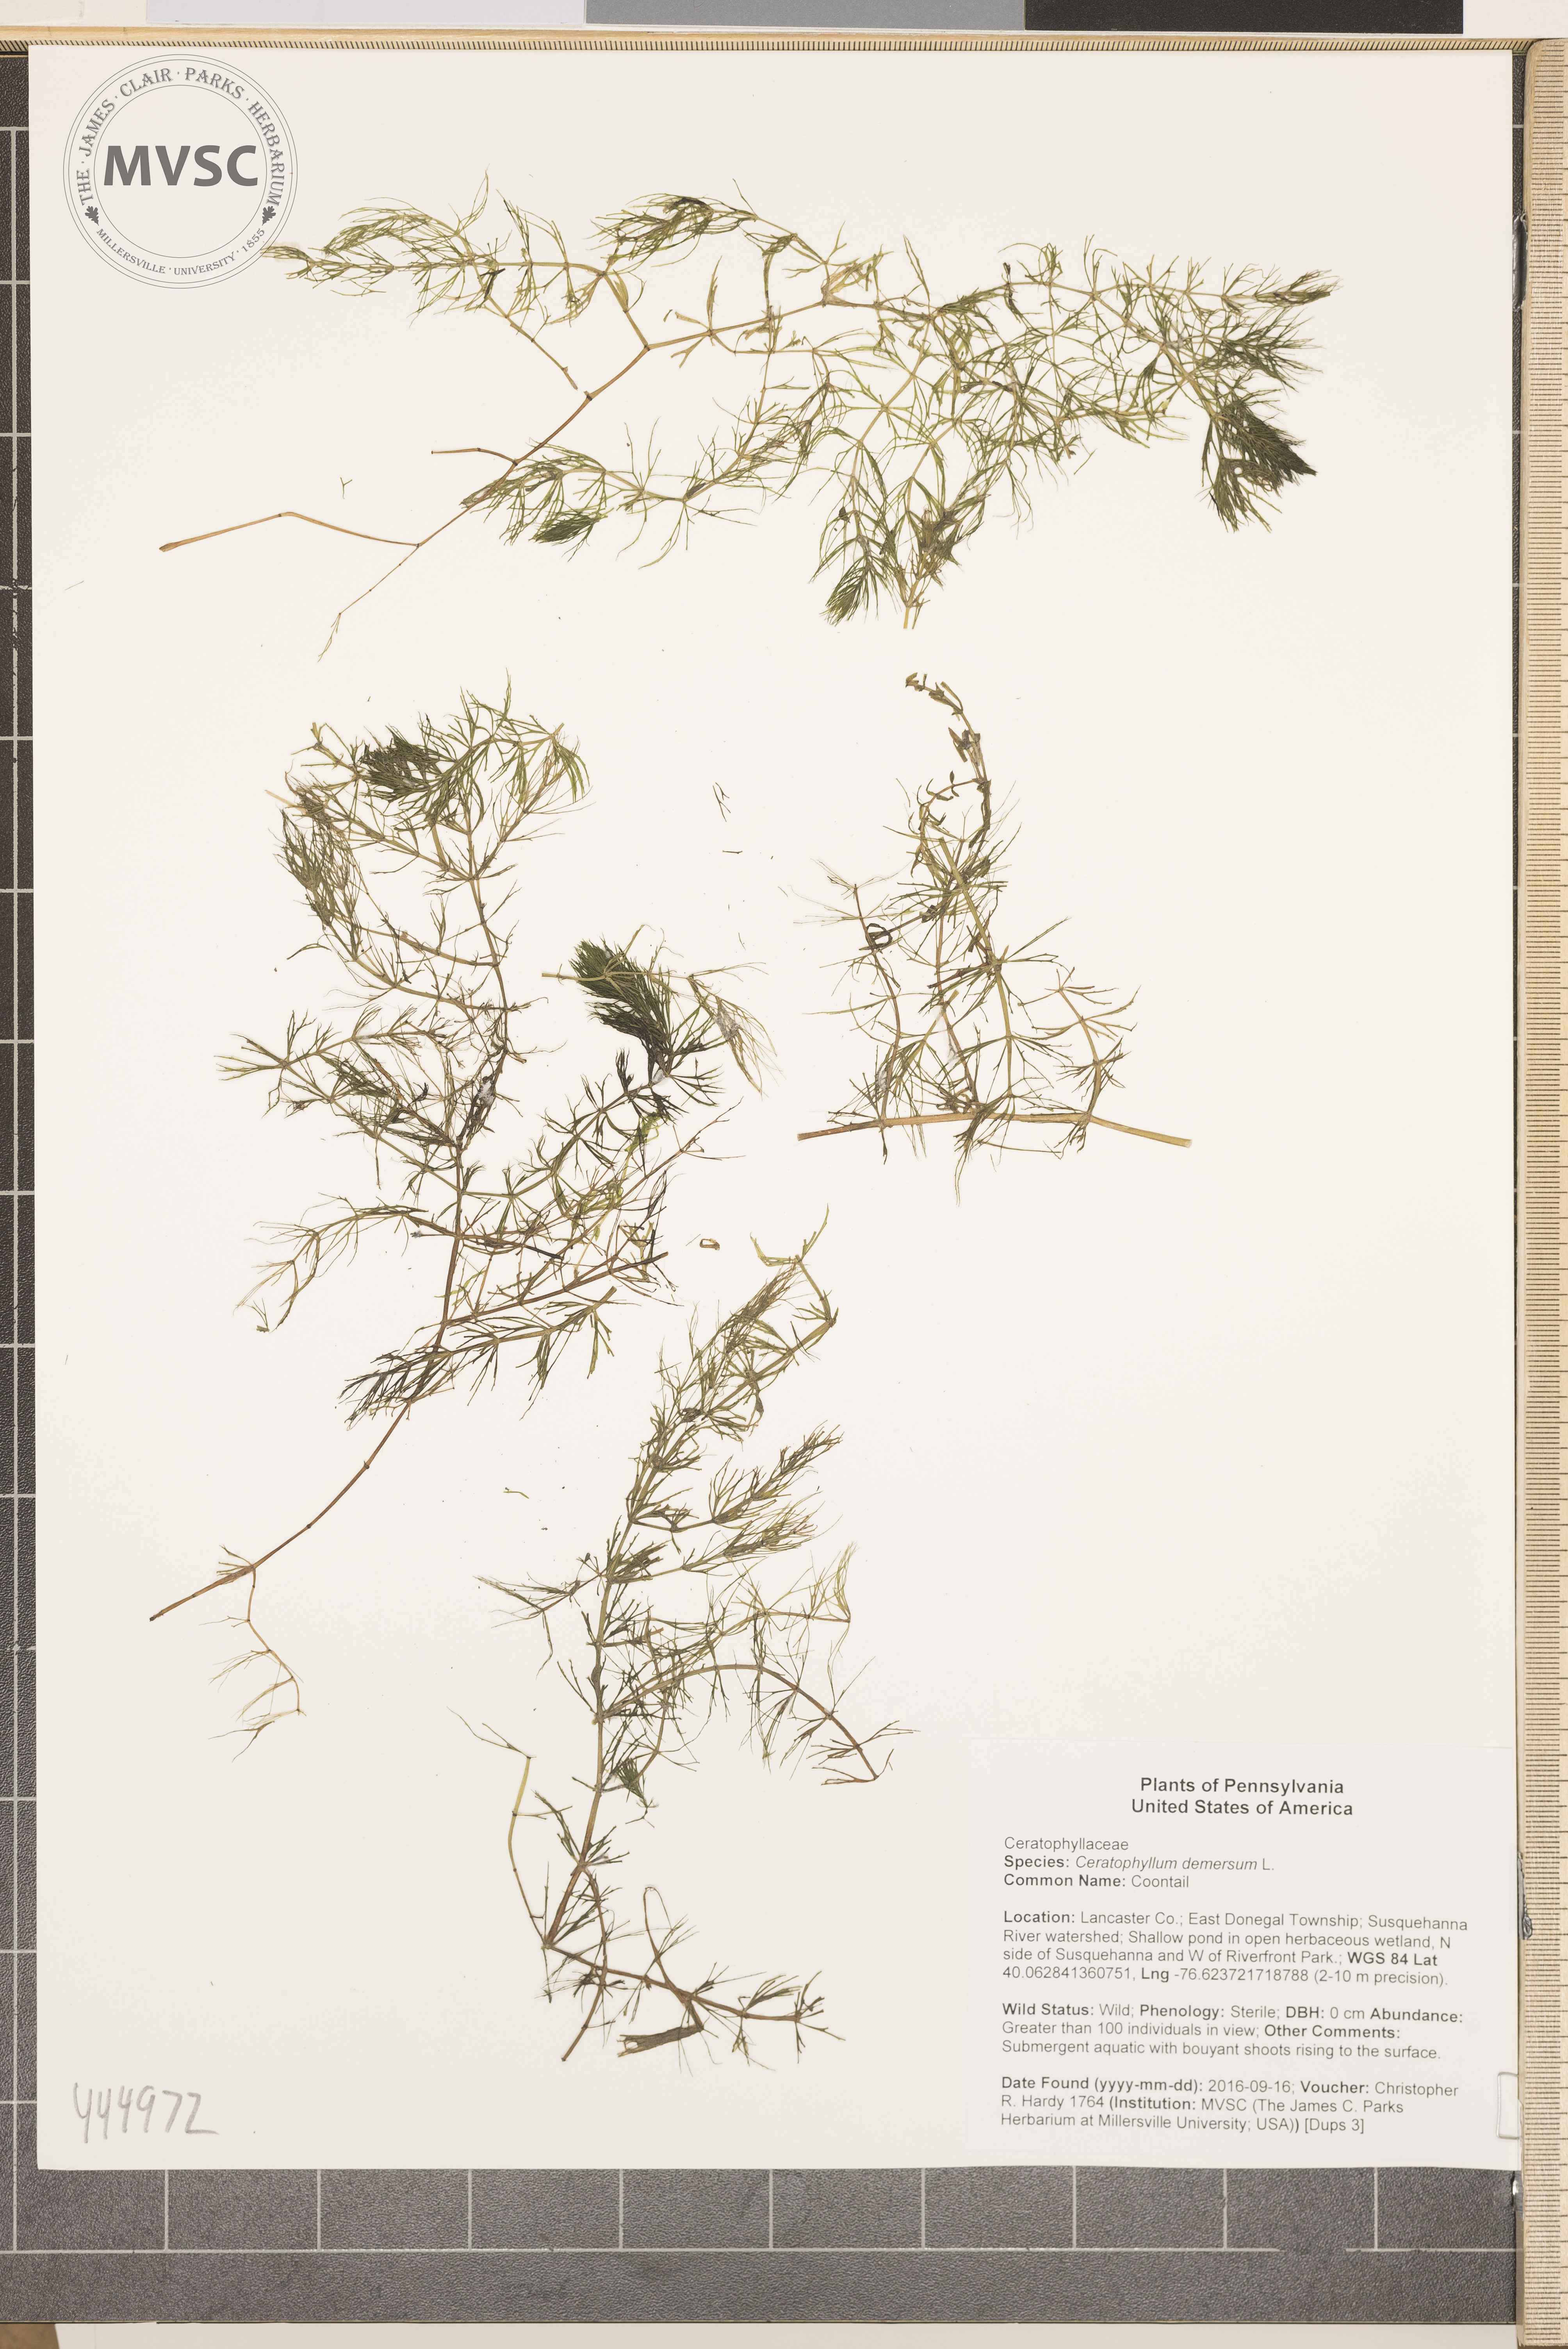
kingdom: Plantae
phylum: Tracheophyta
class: Magnoliopsida
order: Ceratophyllales
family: Ceratophyllaceae
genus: Ceratophyllum
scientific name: Ceratophyllum demersum
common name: Coontail
